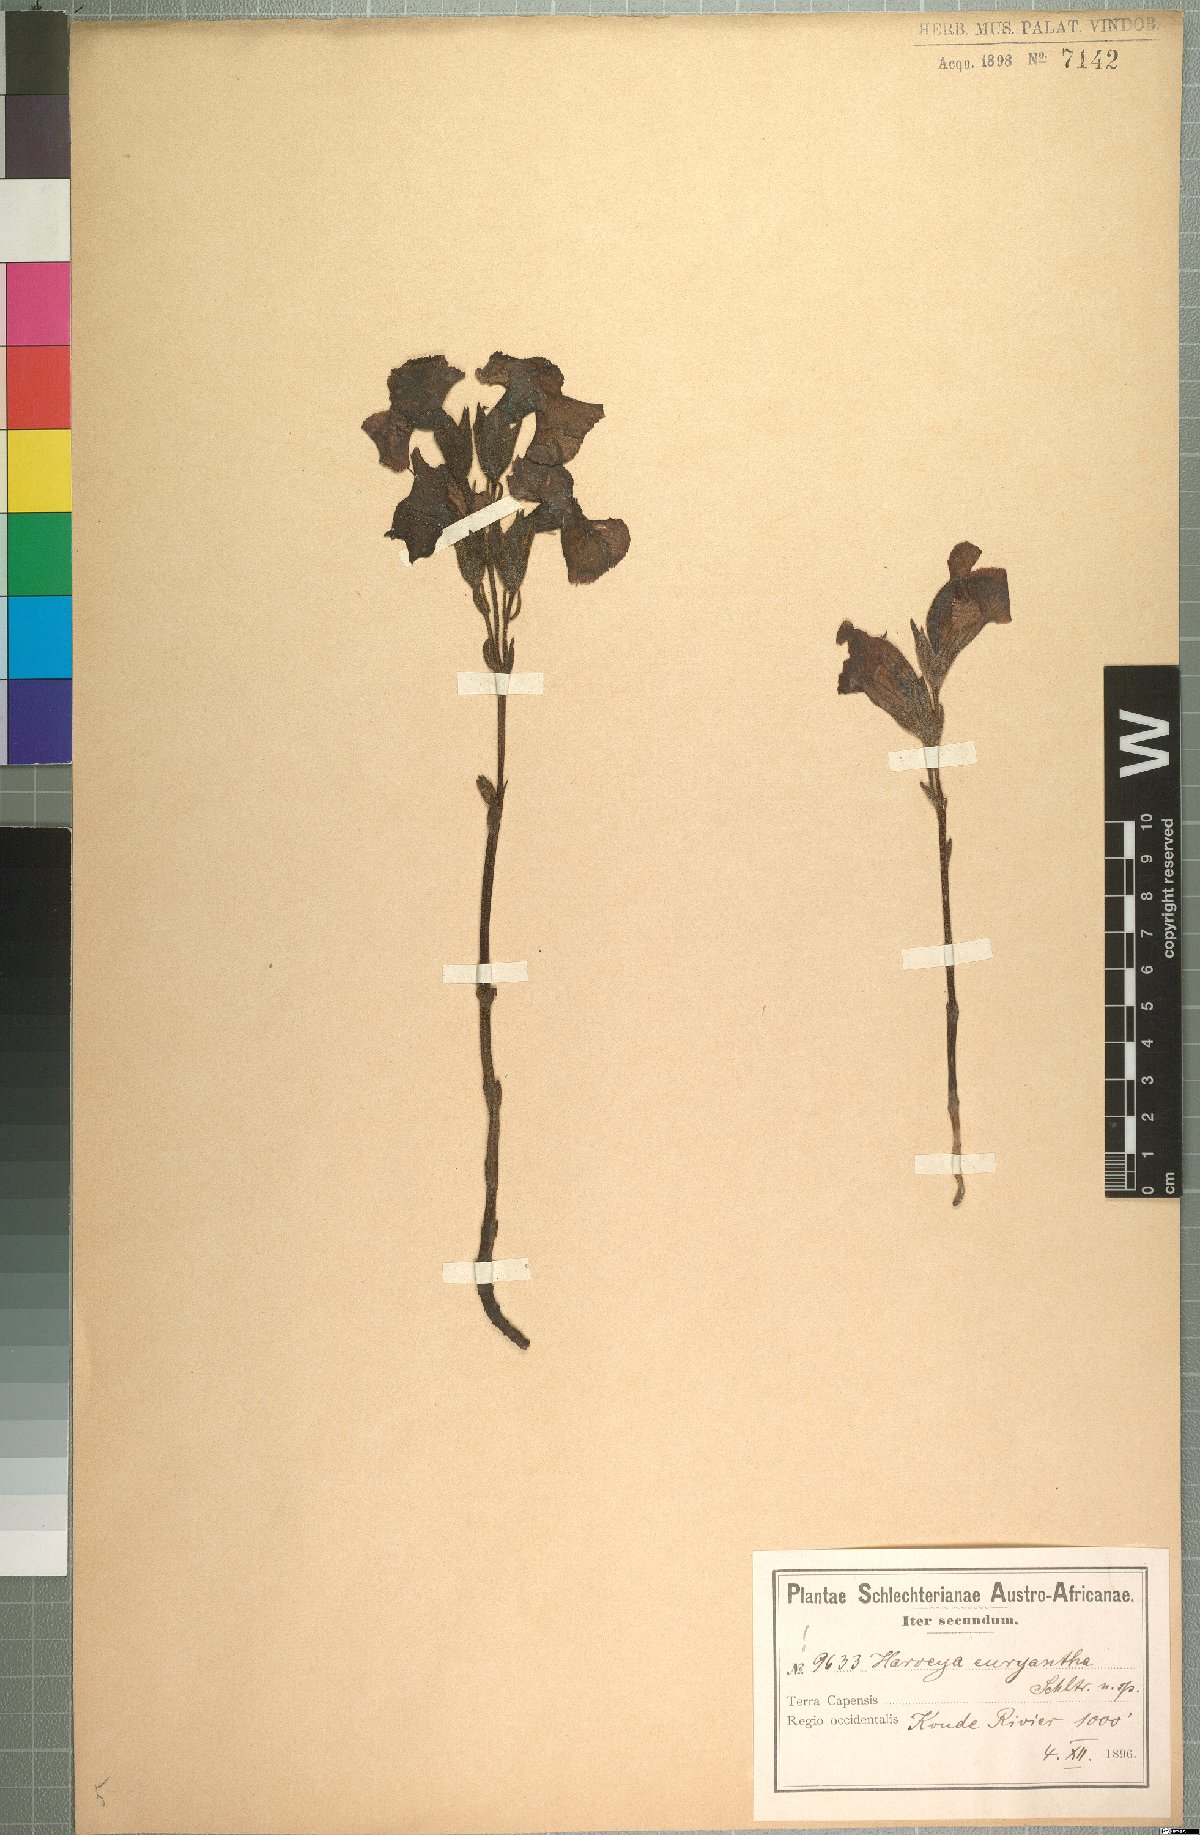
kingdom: Plantae
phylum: Tracheophyta
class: Magnoliopsida
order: Lamiales
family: Orobanchaceae
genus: Harveya
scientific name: Harveya purpurea
